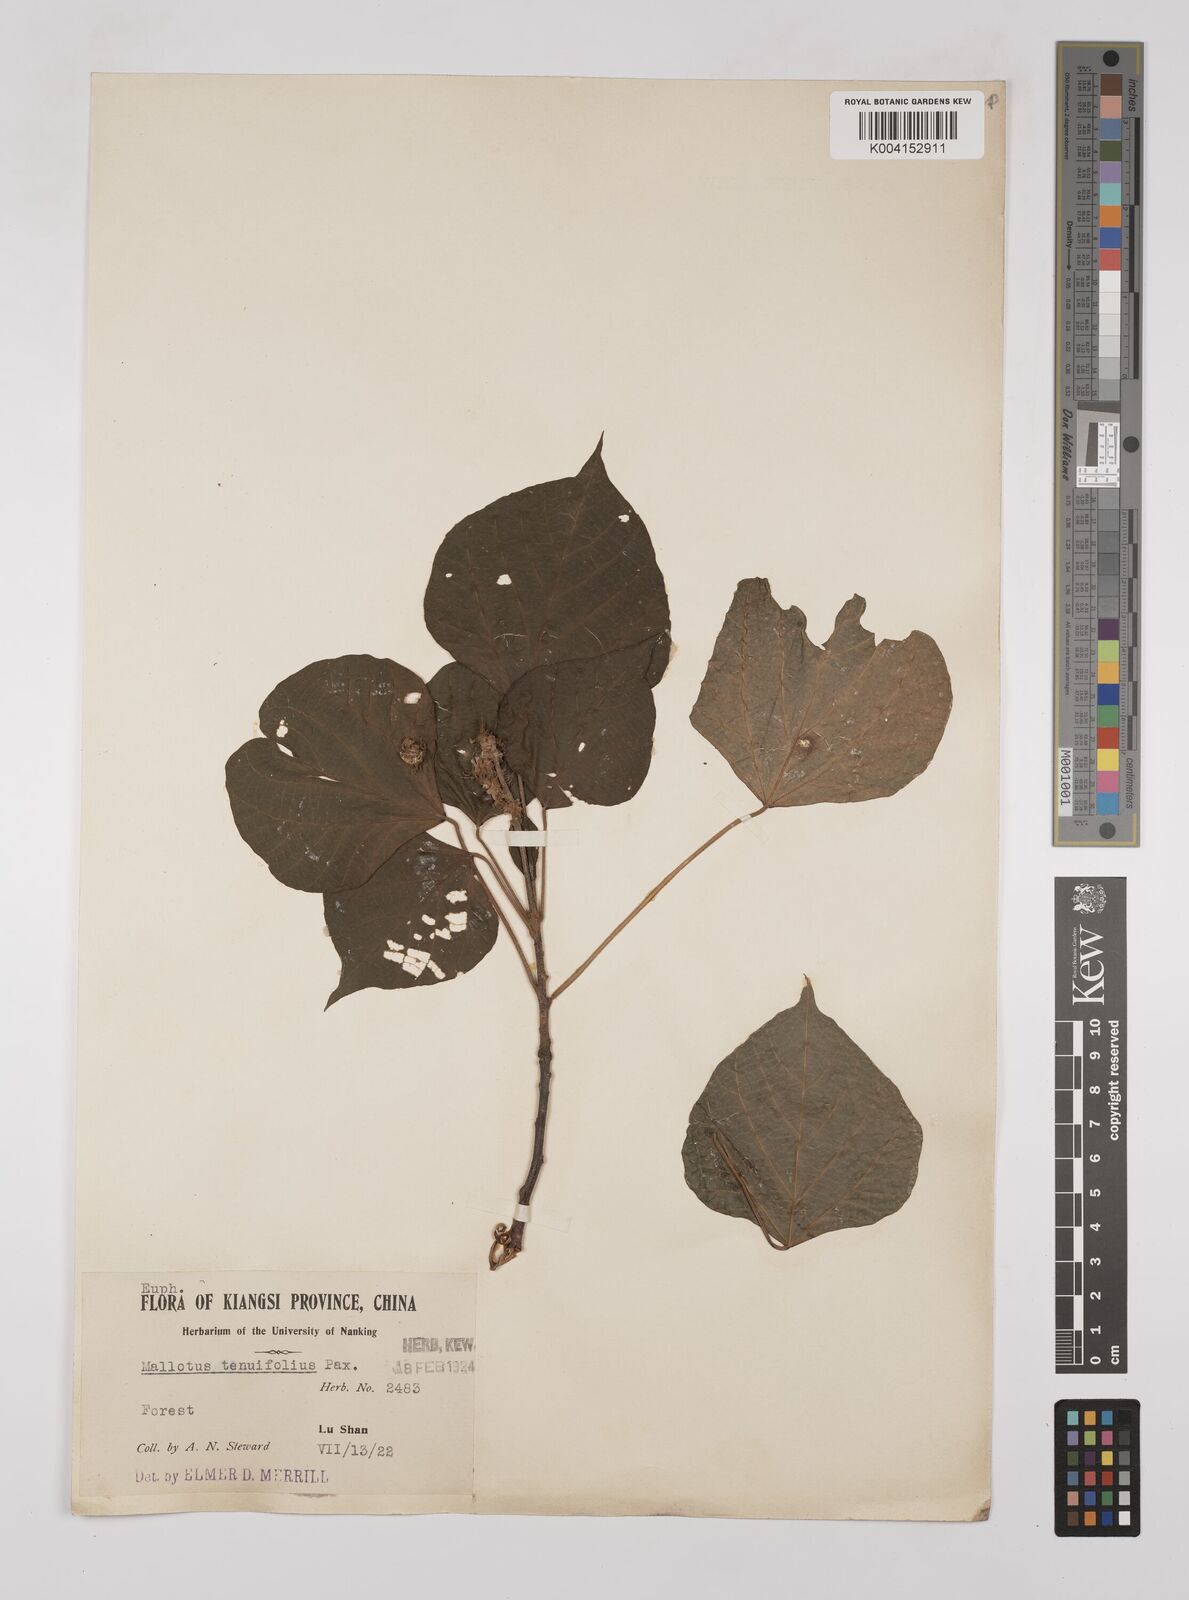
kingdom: Plantae
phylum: Tracheophyta
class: Magnoliopsida
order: Malpighiales
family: Euphorbiaceae
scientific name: Euphorbiaceae
